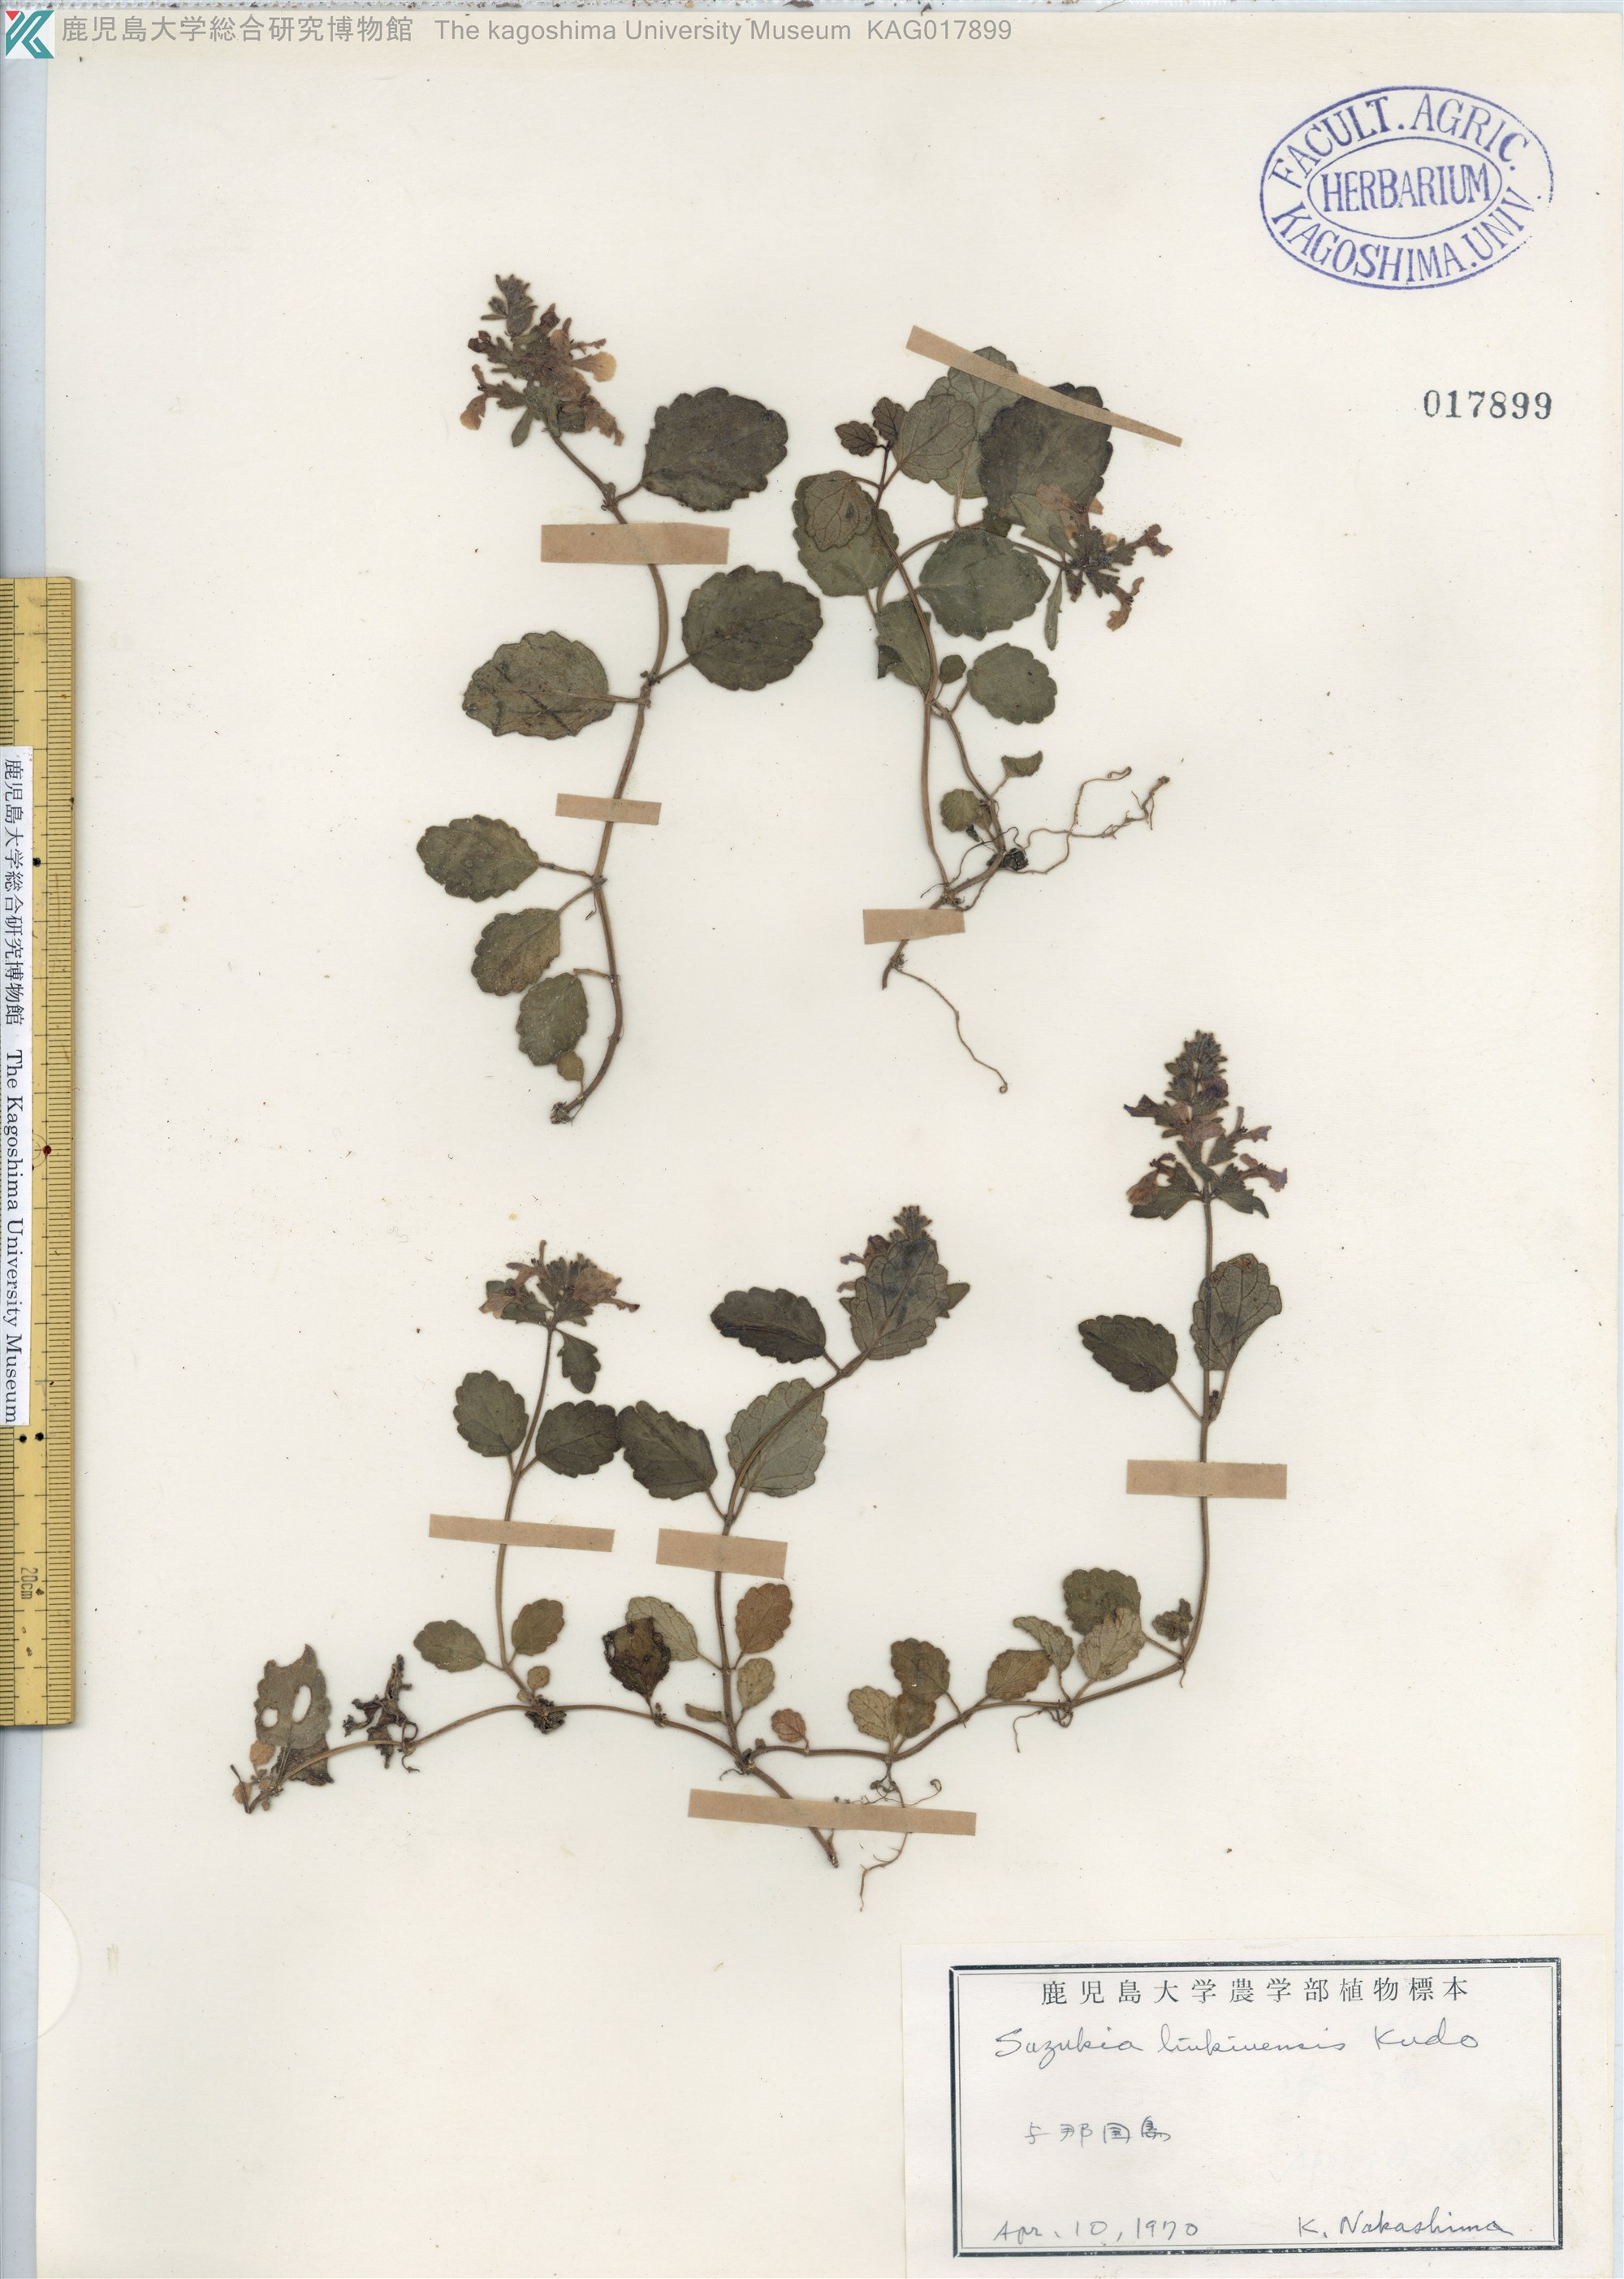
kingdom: Plantae
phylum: Tracheophyta
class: Magnoliopsida
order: Lamiales
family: Lamiaceae
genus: Suzukia
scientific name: Suzukia luchuensis
